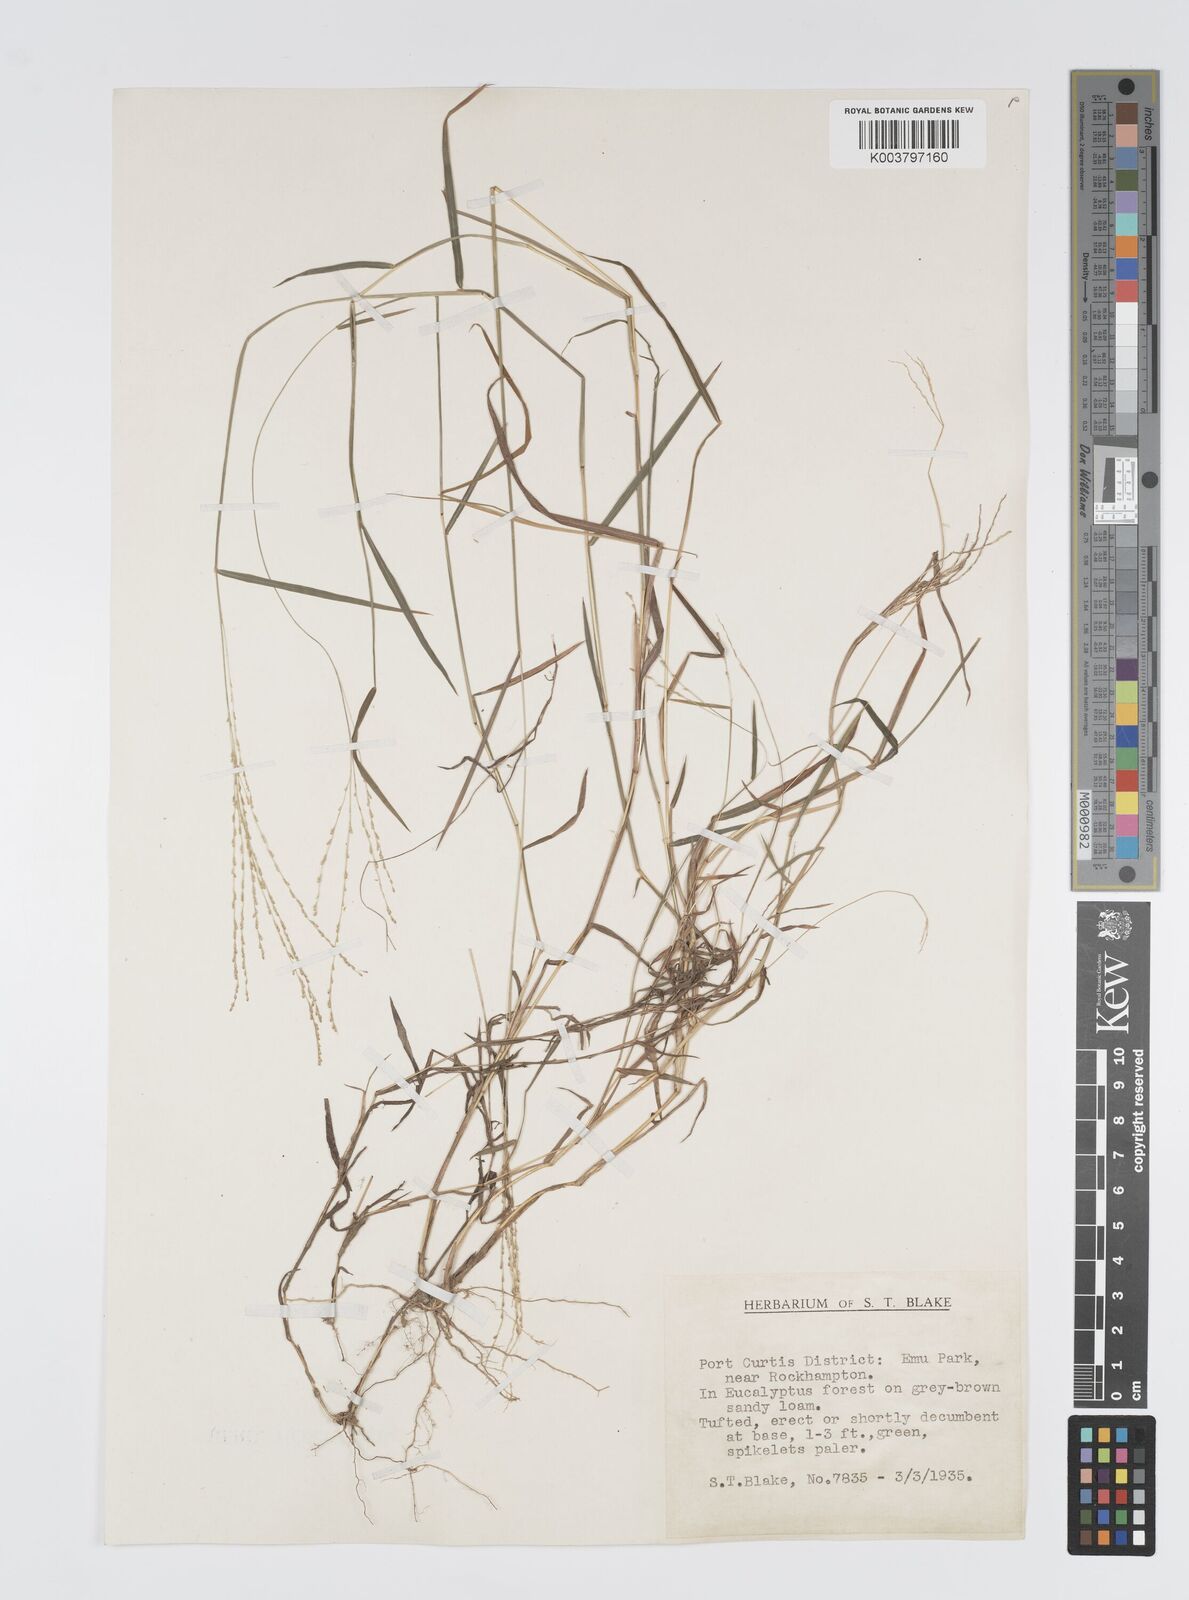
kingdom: Plantae
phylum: Tracheophyta
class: Liliopsida
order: Poales
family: Poaceae
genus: Digitaria
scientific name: Digitaria spec
